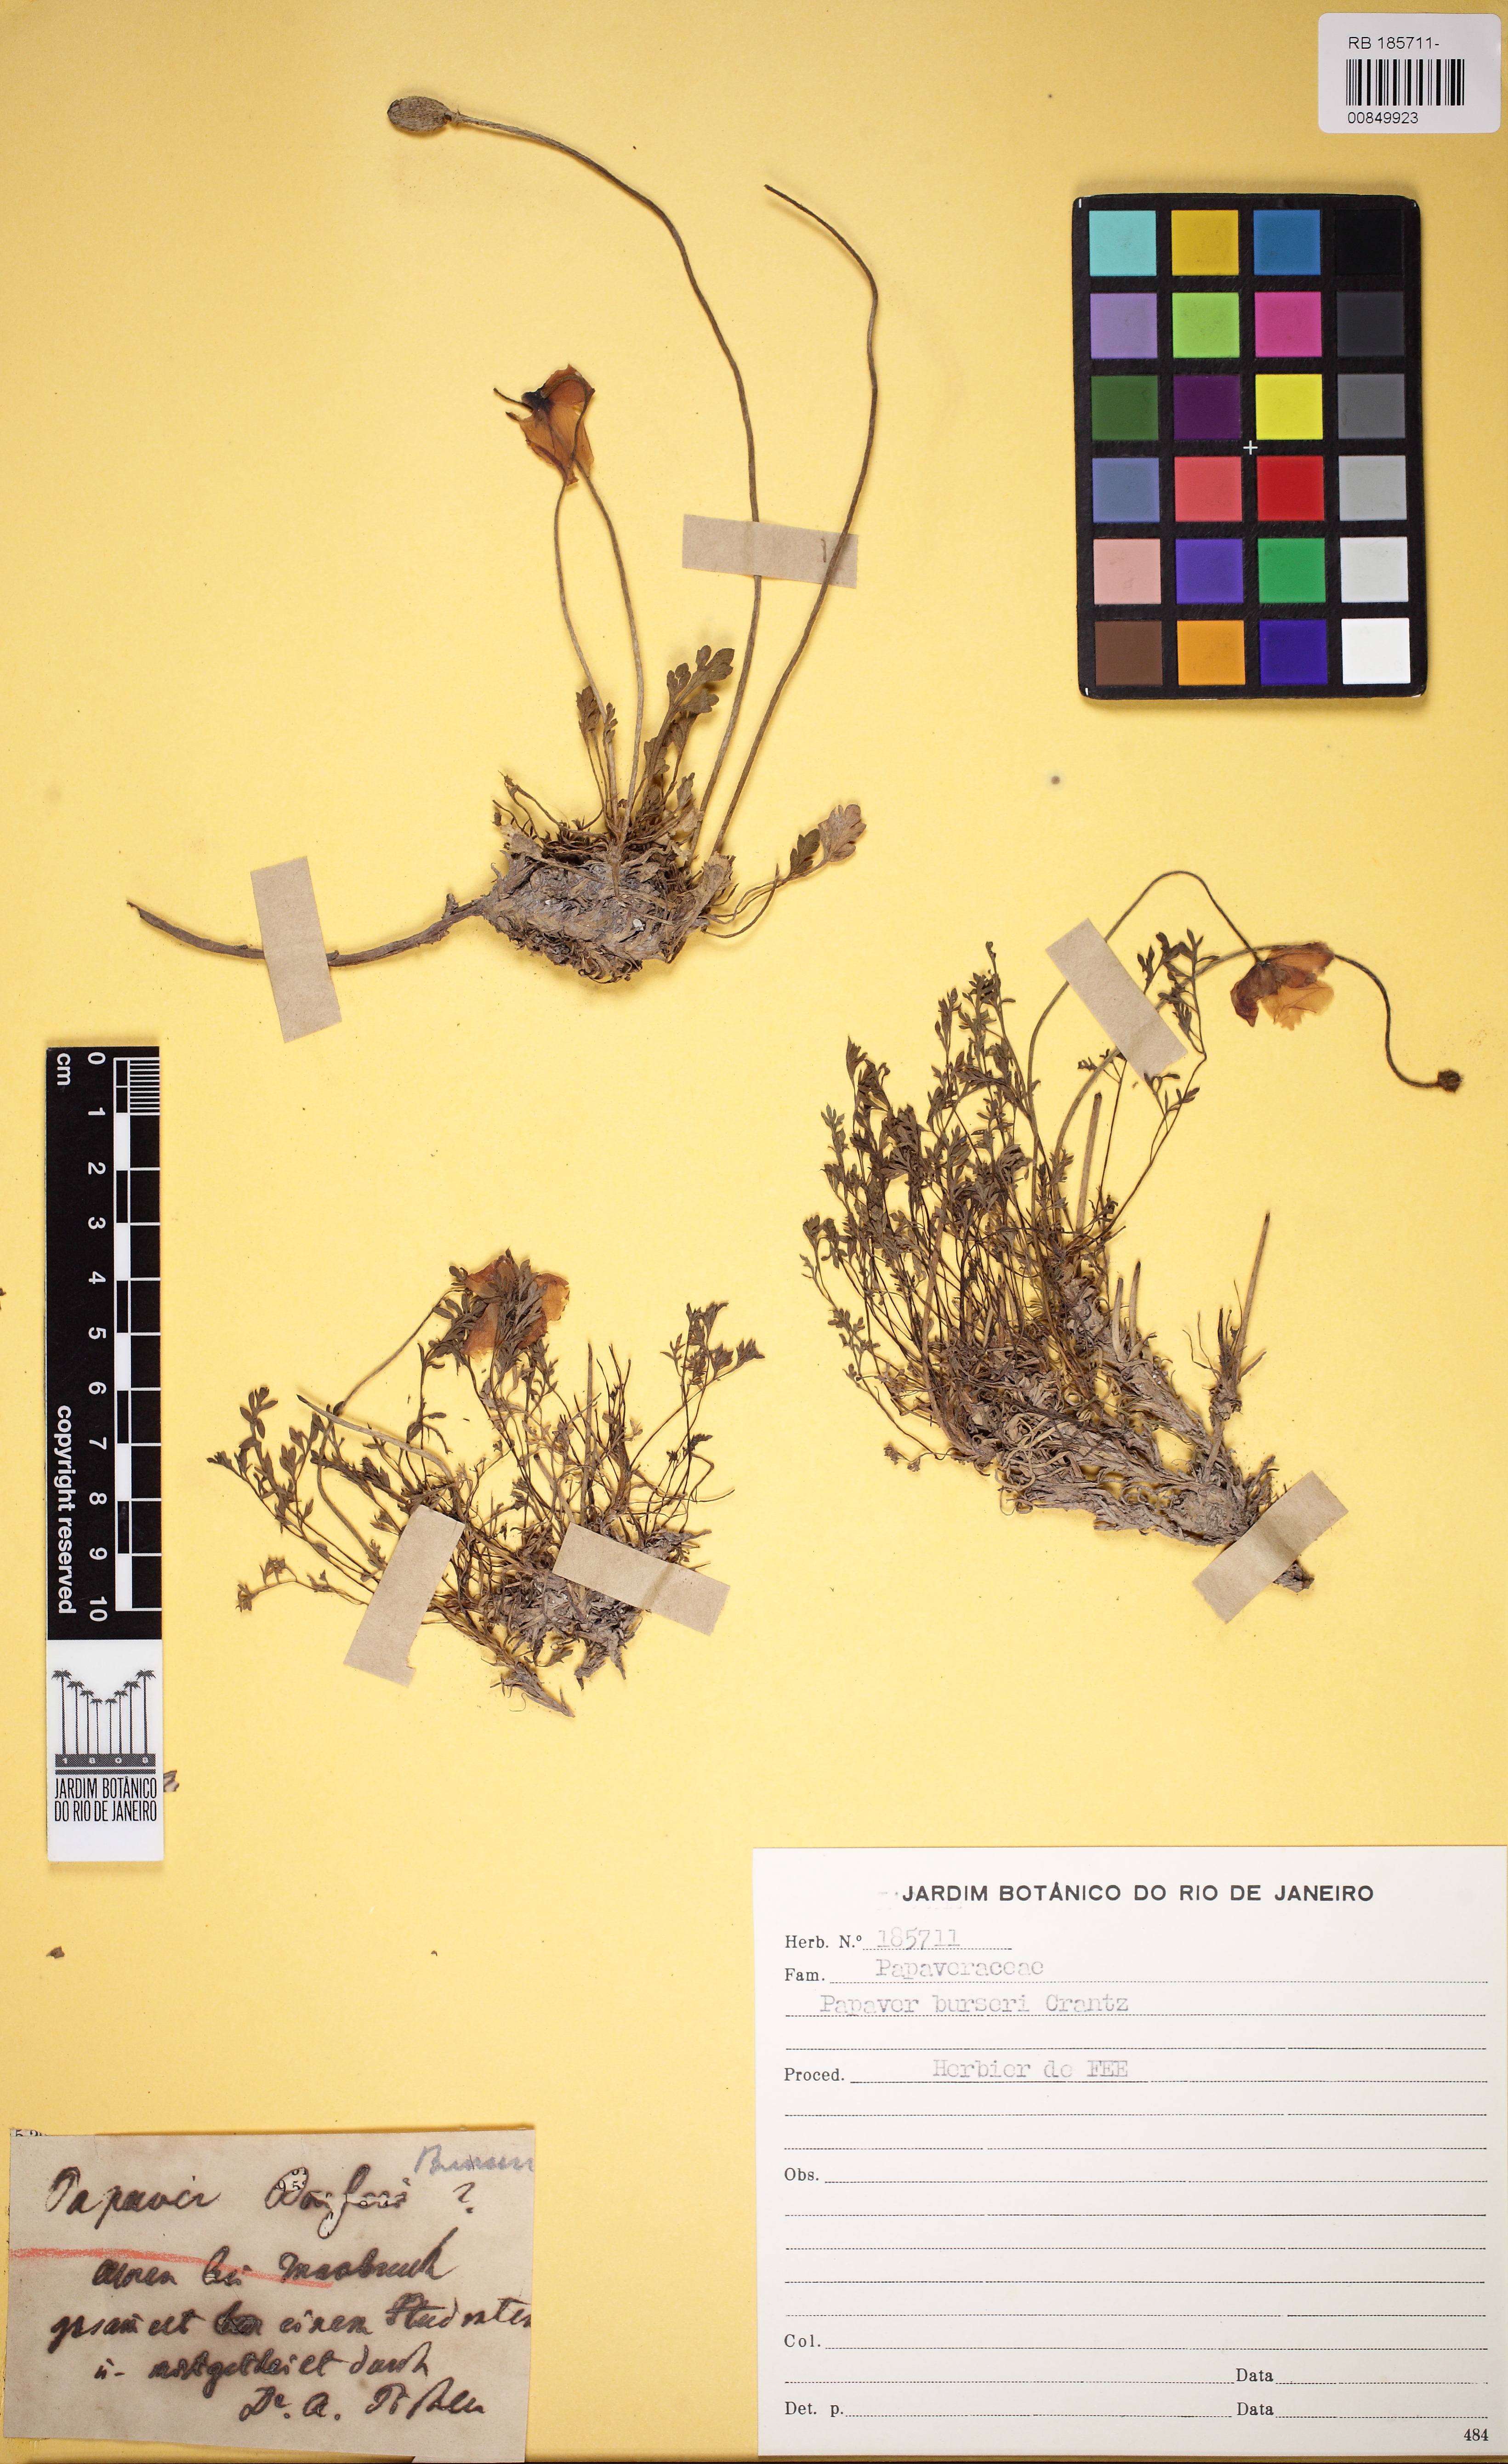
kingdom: Plantae
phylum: Tracheophyta
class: Magnoliopsida
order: Ranunculales
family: Papaveraceae
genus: Papaver
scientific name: Papaver alpinum
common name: Austrian poppy
